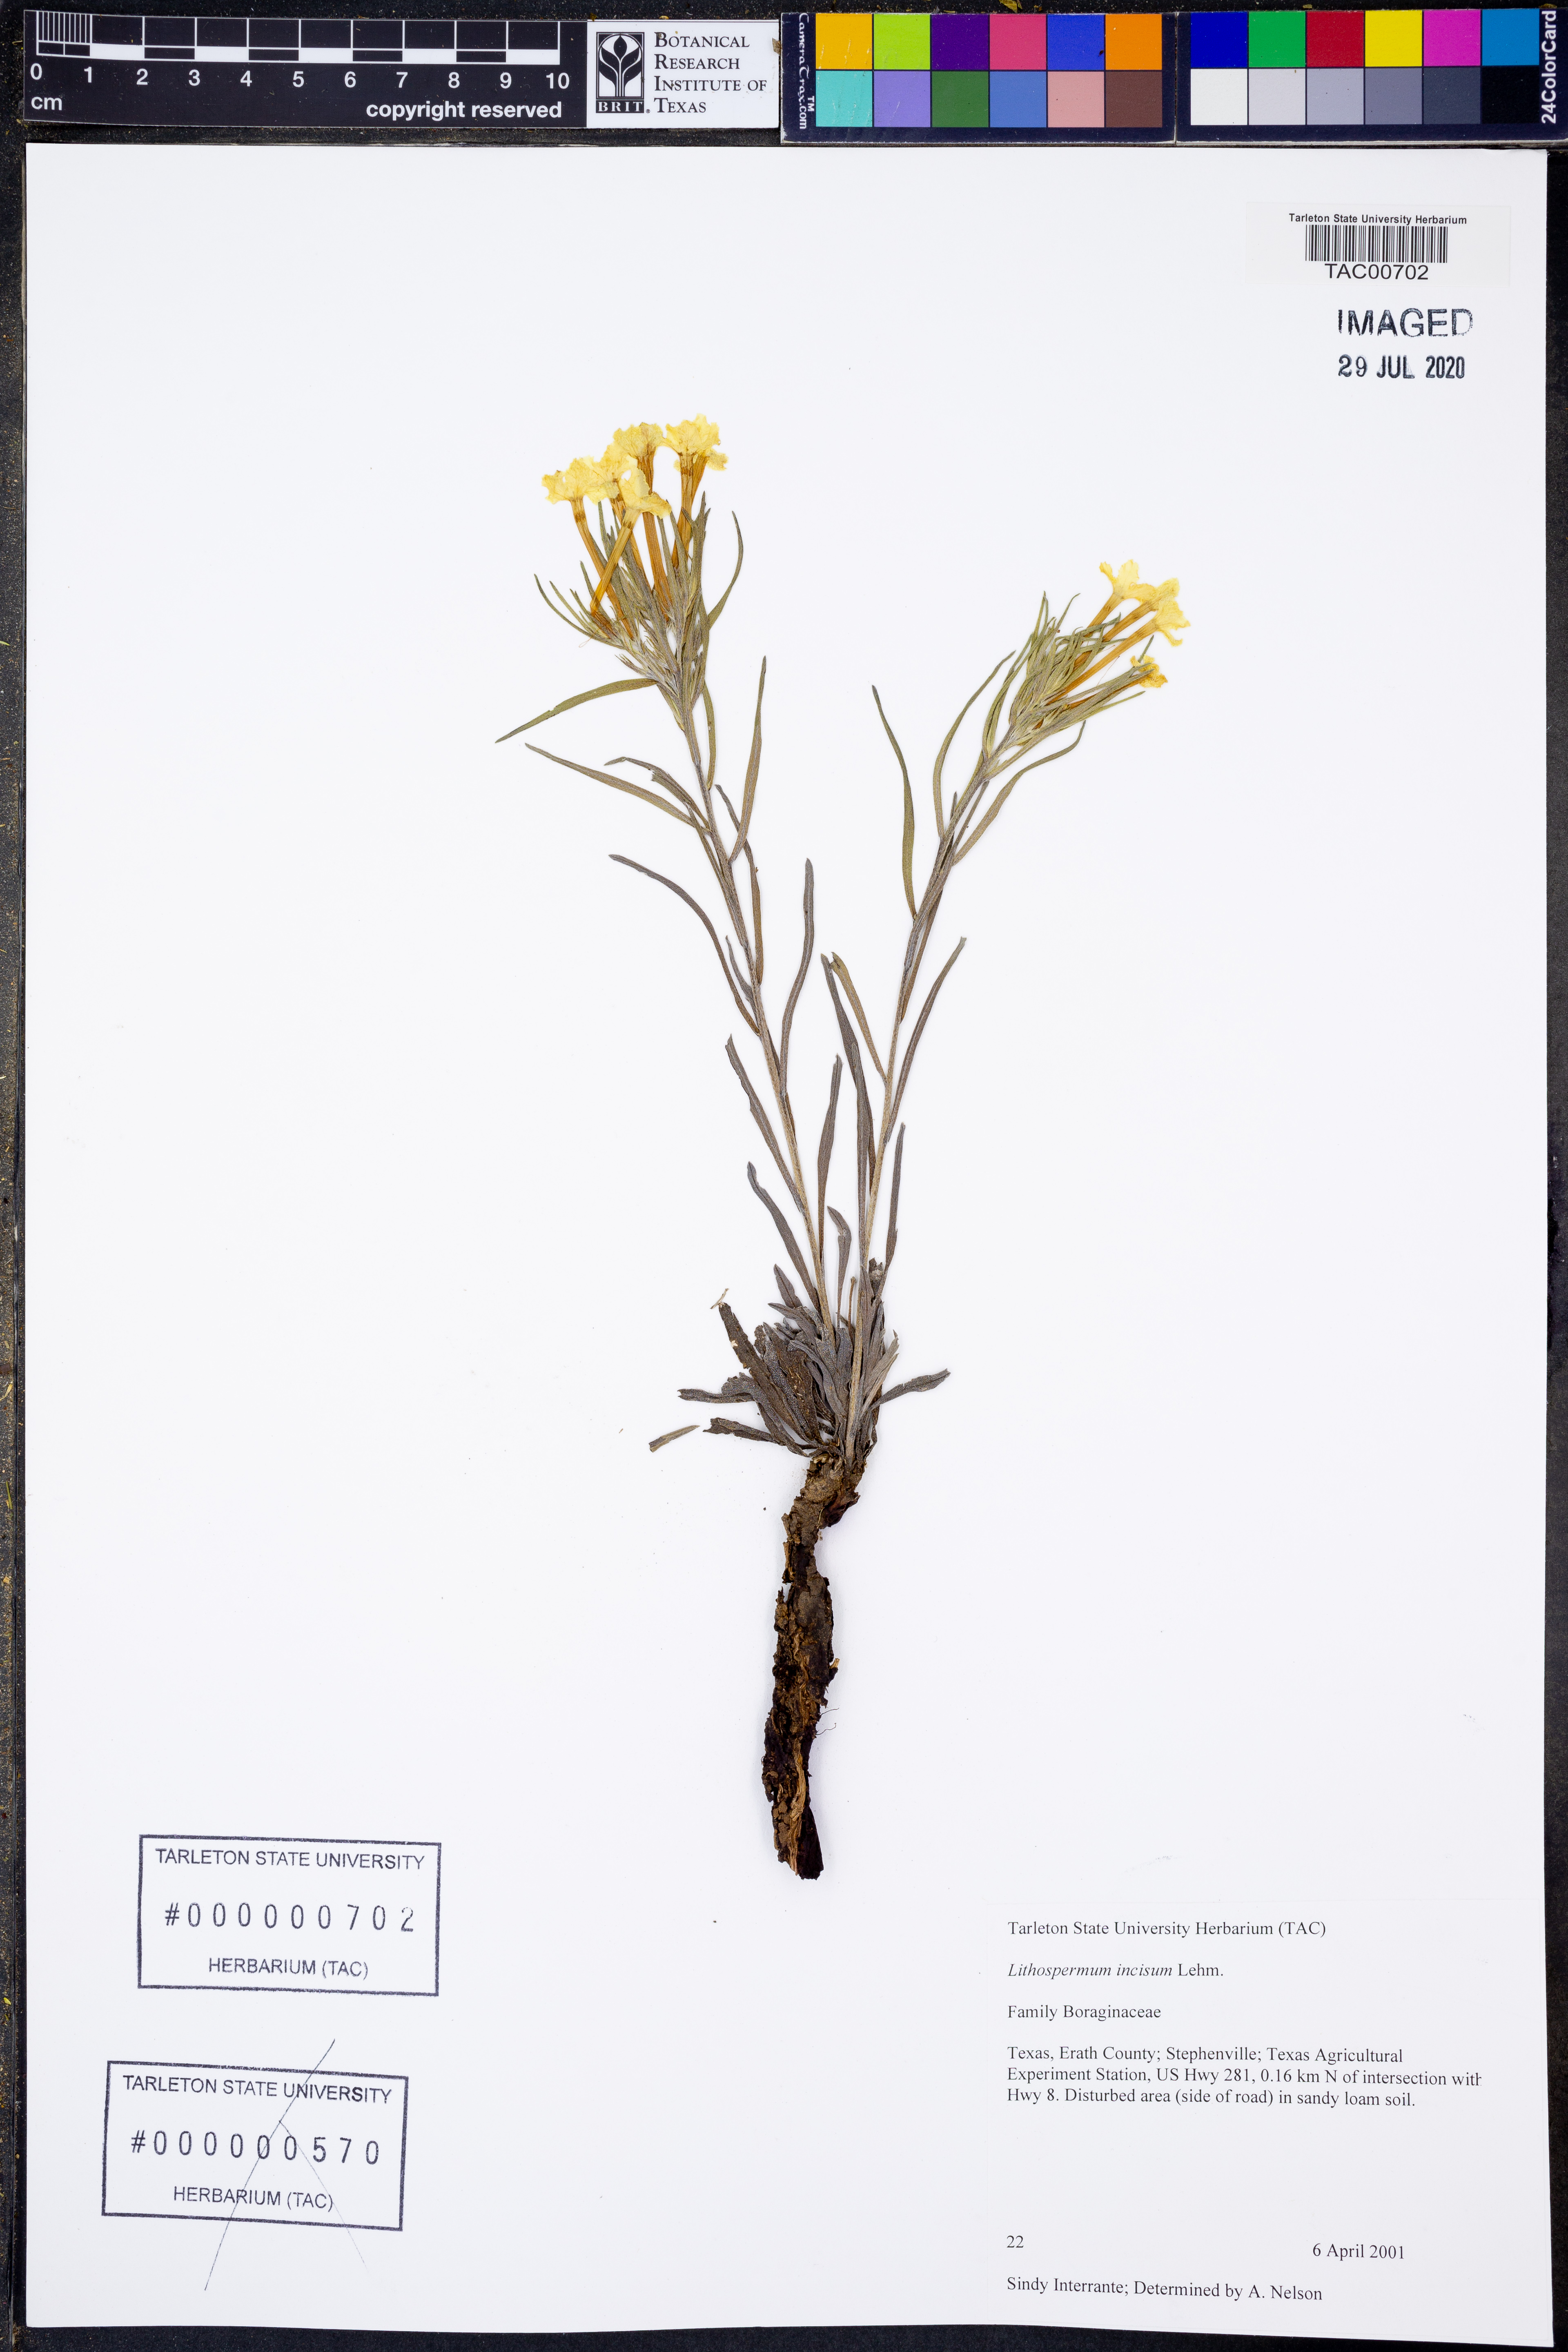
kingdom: Plantae
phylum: Tracheophyta
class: Magnoliopsida
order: Boraginales
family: Boraginaceae
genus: Lithospermum
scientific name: Lithospermum incisum
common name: Fringed gromwell
